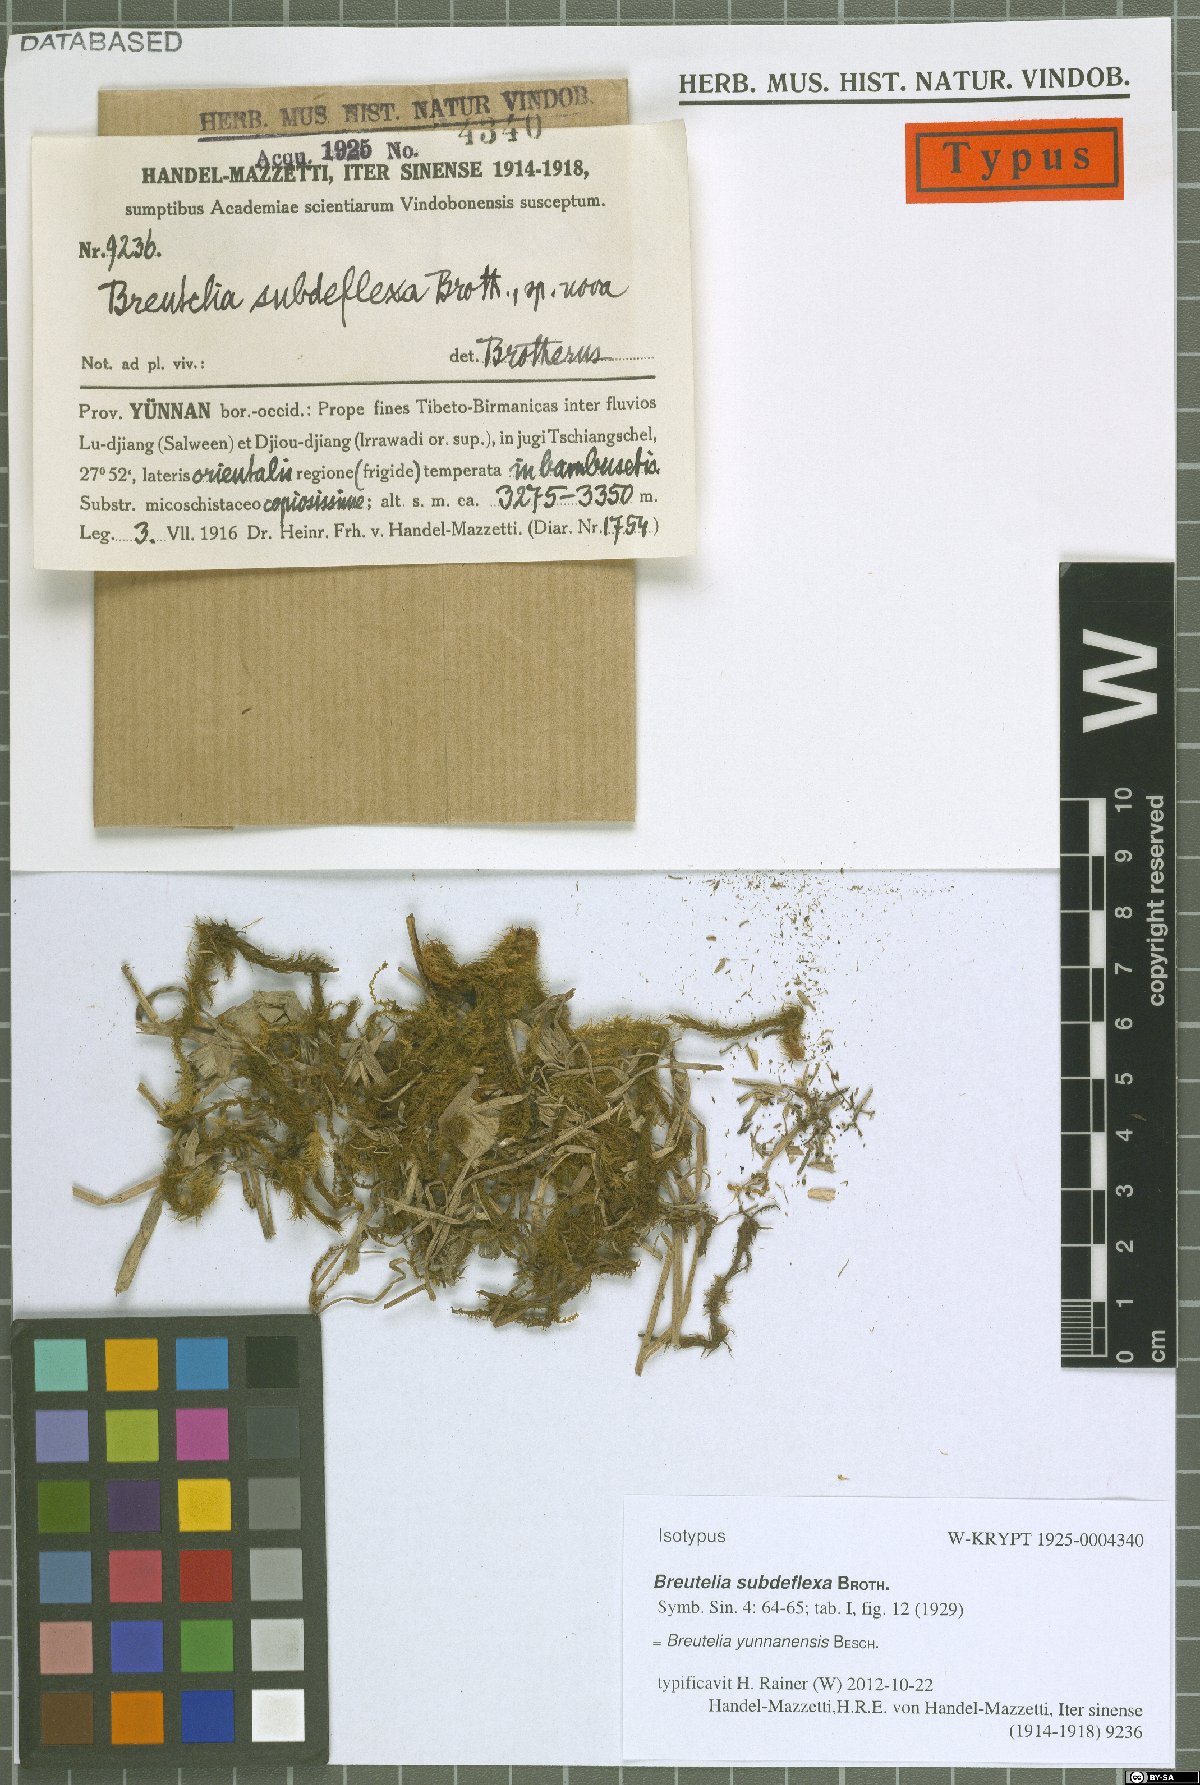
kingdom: Plantae
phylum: Bryophyta
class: Bryopsida
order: Bartramiales
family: Bartramiaceae
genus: Breutelia
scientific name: Breutelia yunnanensis
